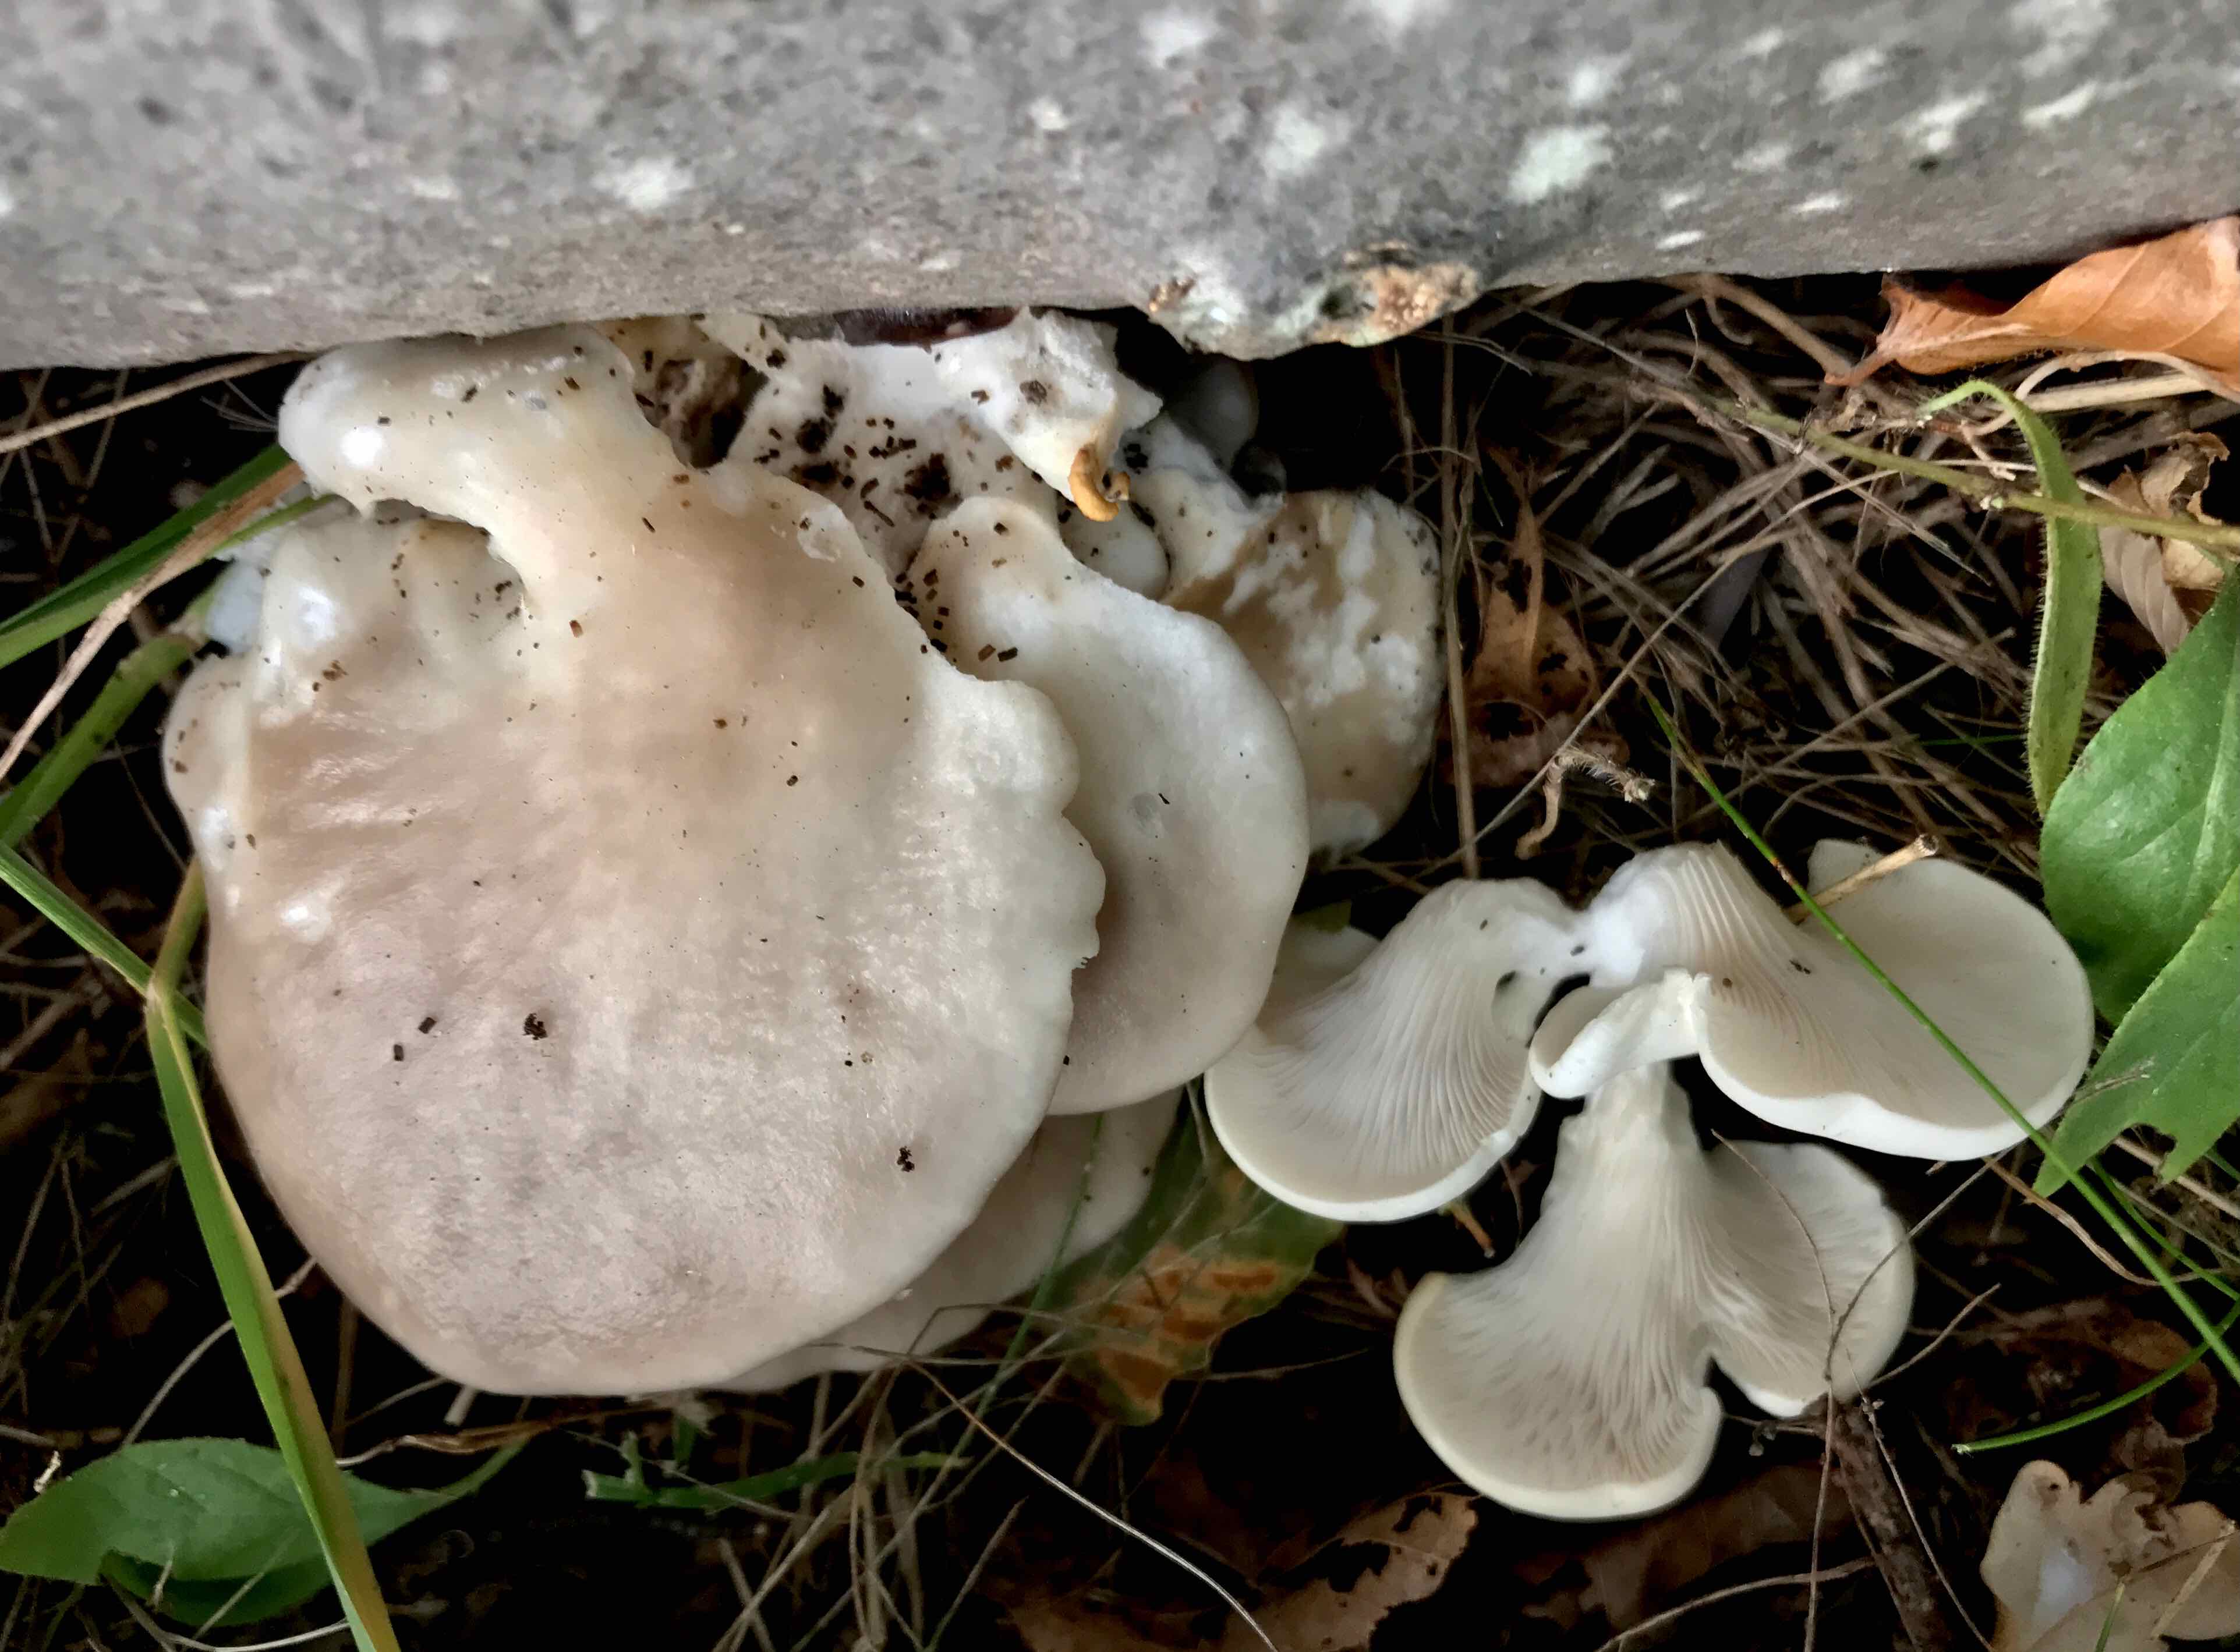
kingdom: Fungi
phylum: Basidiomycota
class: Agaricomycetes
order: Agaricales
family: Pleurotaceae
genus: Pleurotus
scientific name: Pleurotus pulmonarius
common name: sommer-østershat
